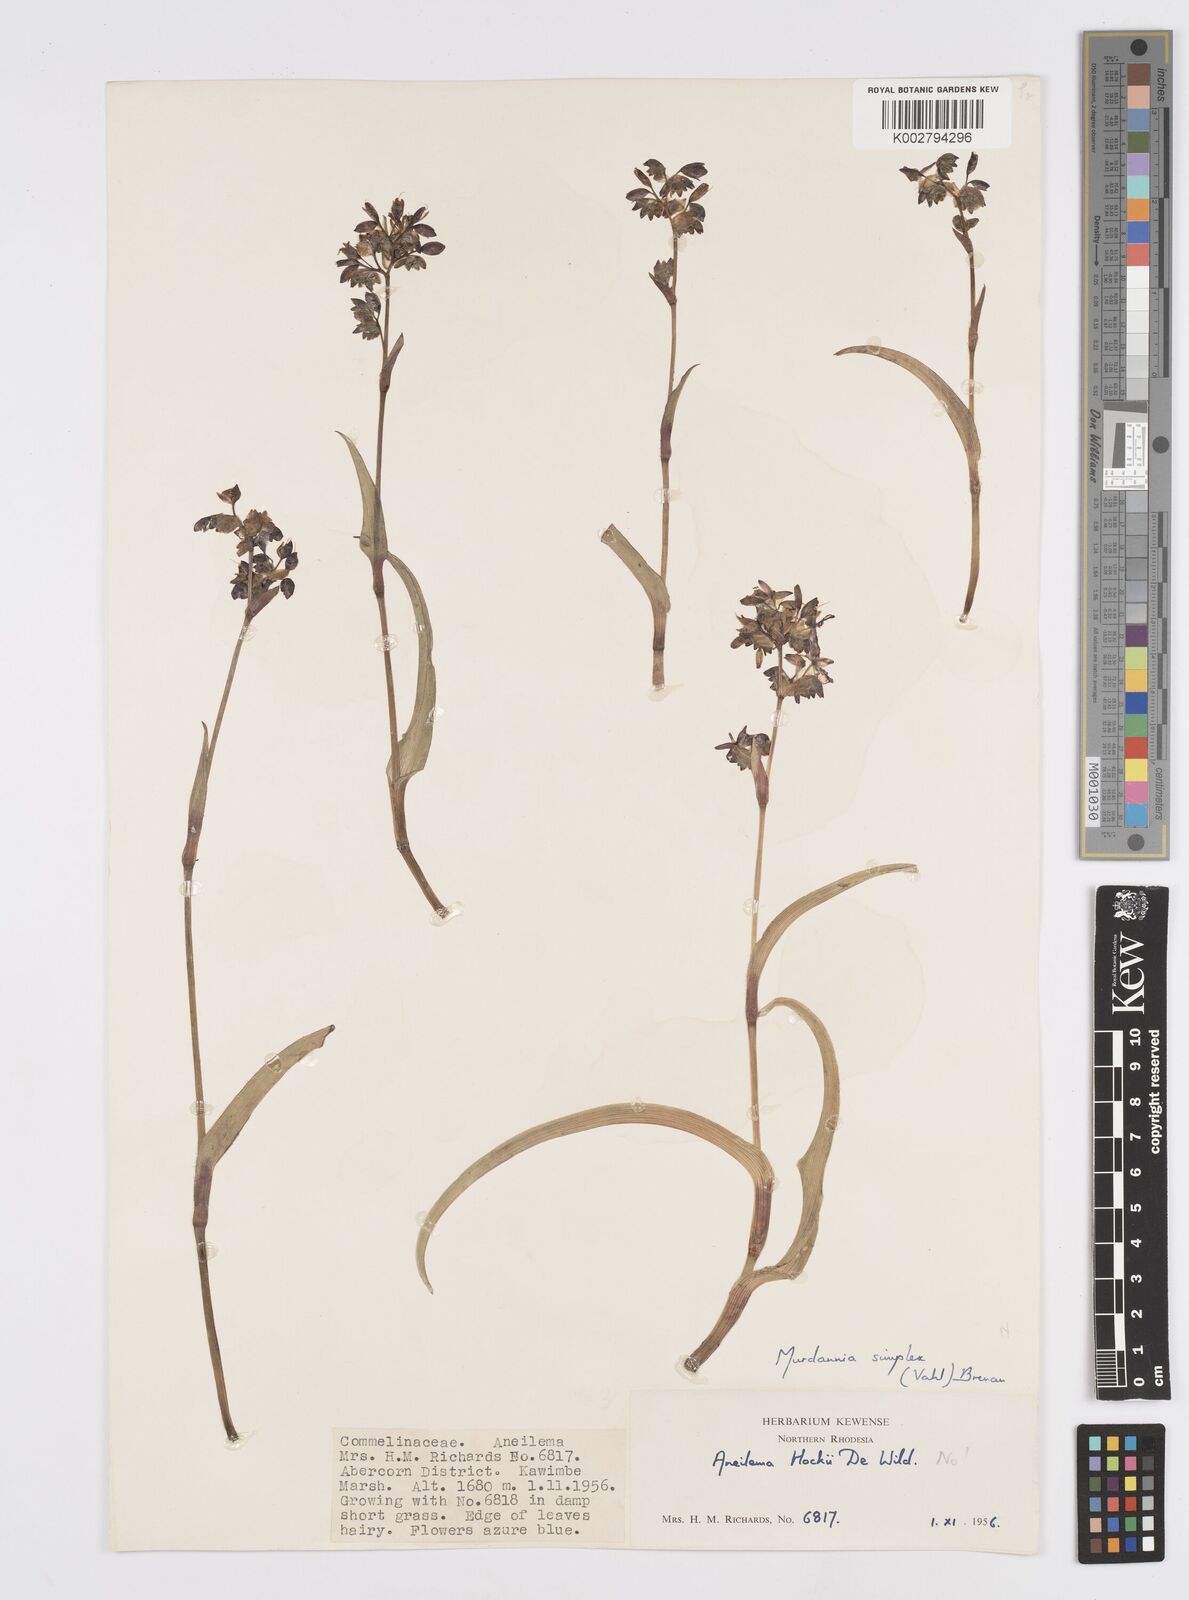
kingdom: Plantae
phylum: Tracheophyta
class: Liliopsida
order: Commelinales
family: Commelinaceae
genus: Murdannia
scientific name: Murdannia simplex
